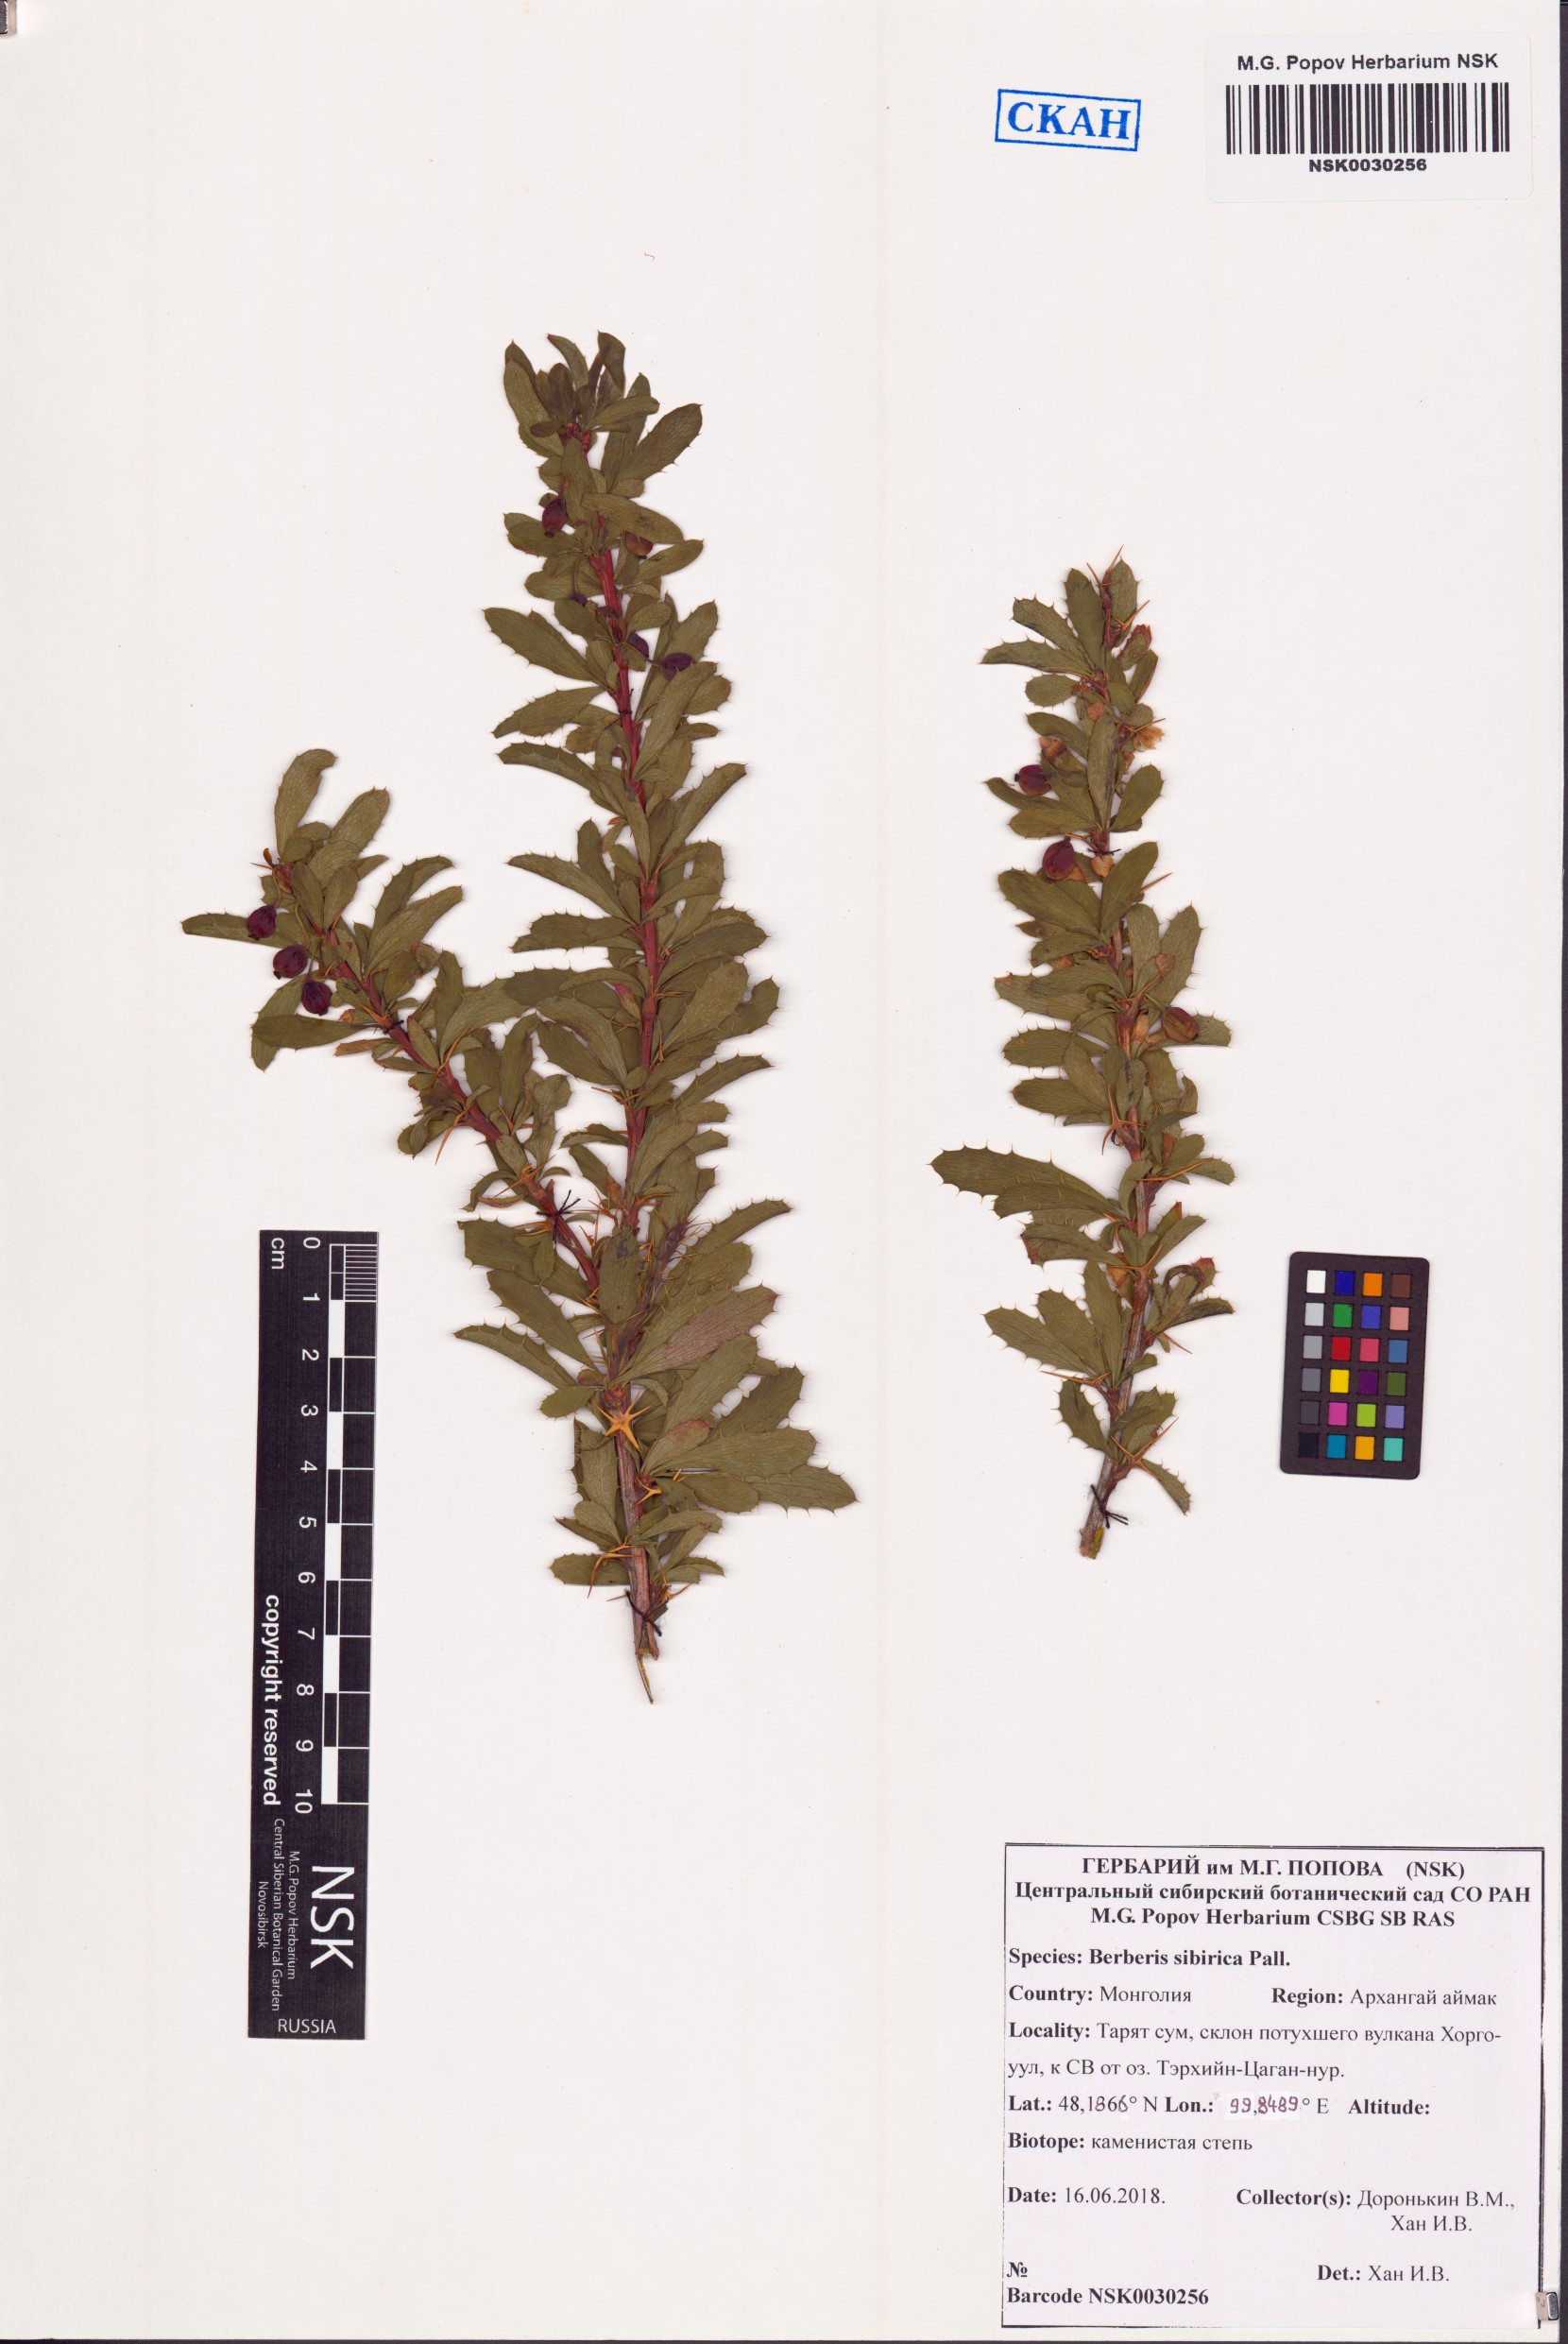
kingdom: Plantae
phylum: Tracheophyta
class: Magnoliopsida
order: Ranunculales
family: Berberidaceae
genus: Berberis
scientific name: Berberis sibirica
